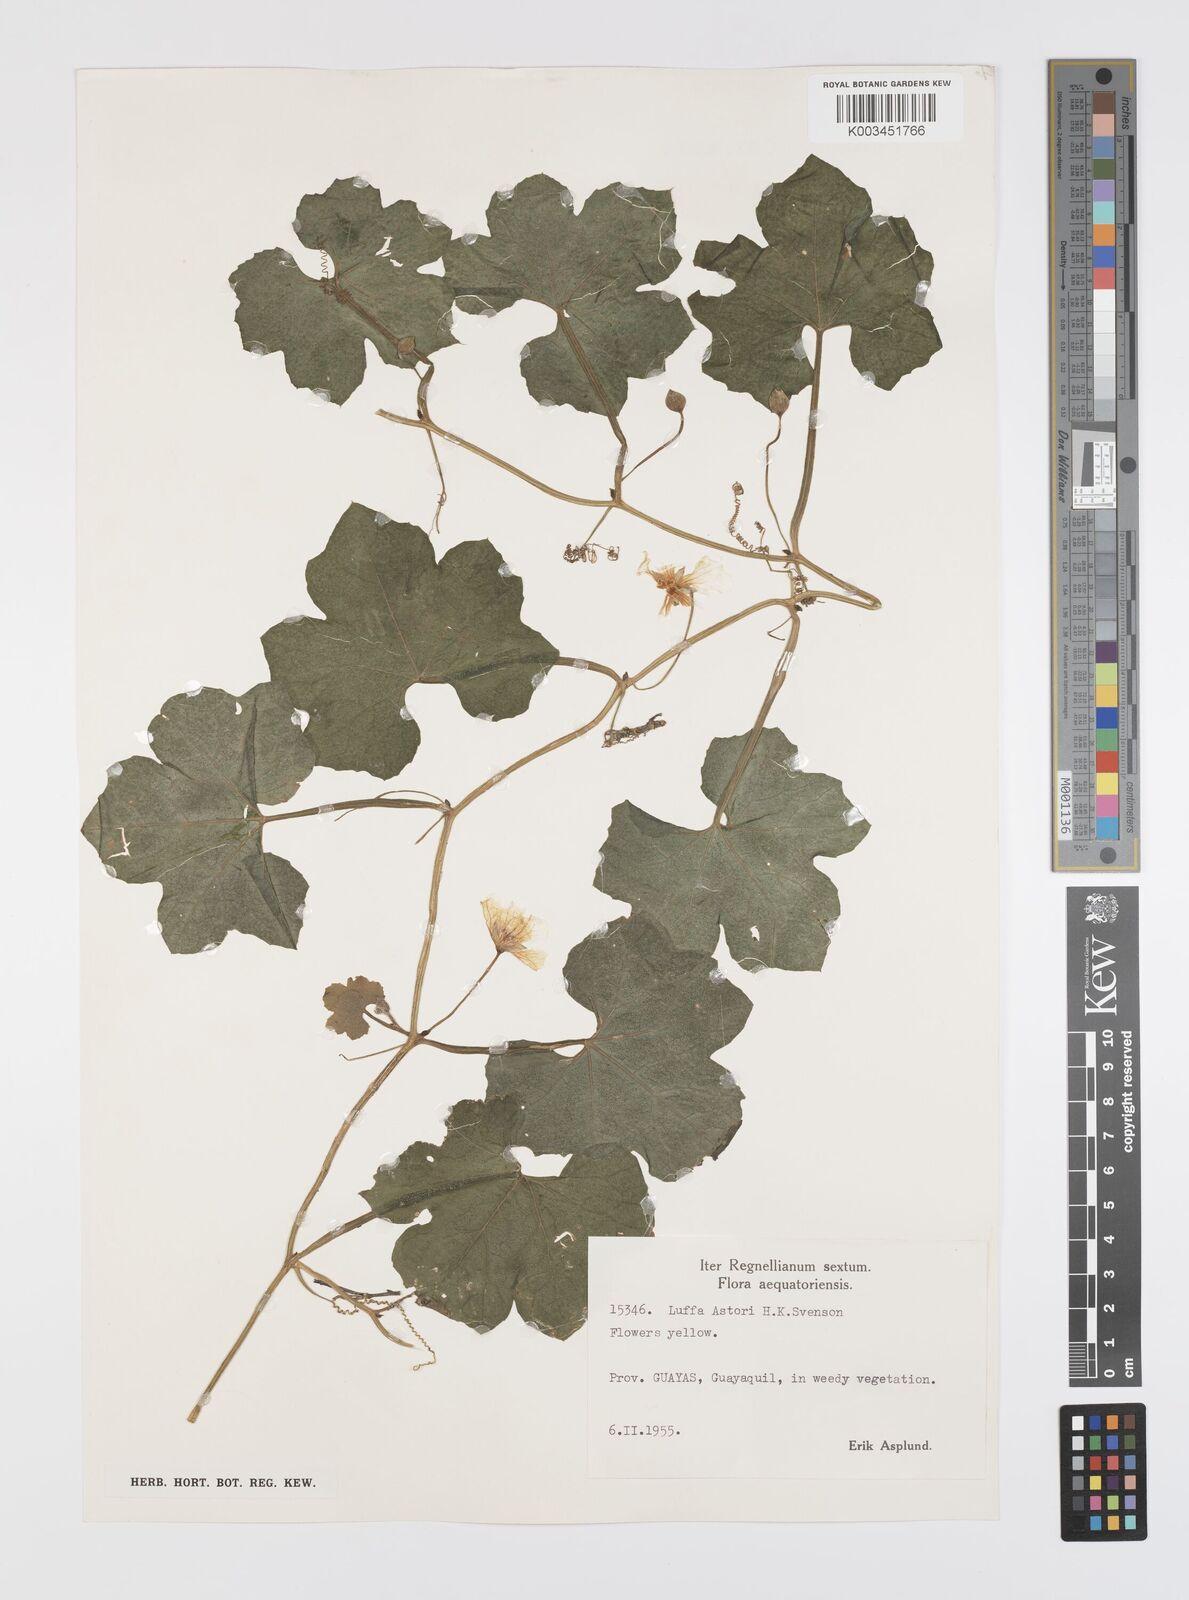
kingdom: Plantae
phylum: Tracheophyta
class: Magnoliopsida
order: Cucurbitales
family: Cucurbitaceae
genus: Luffa
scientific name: Luffa astorii
